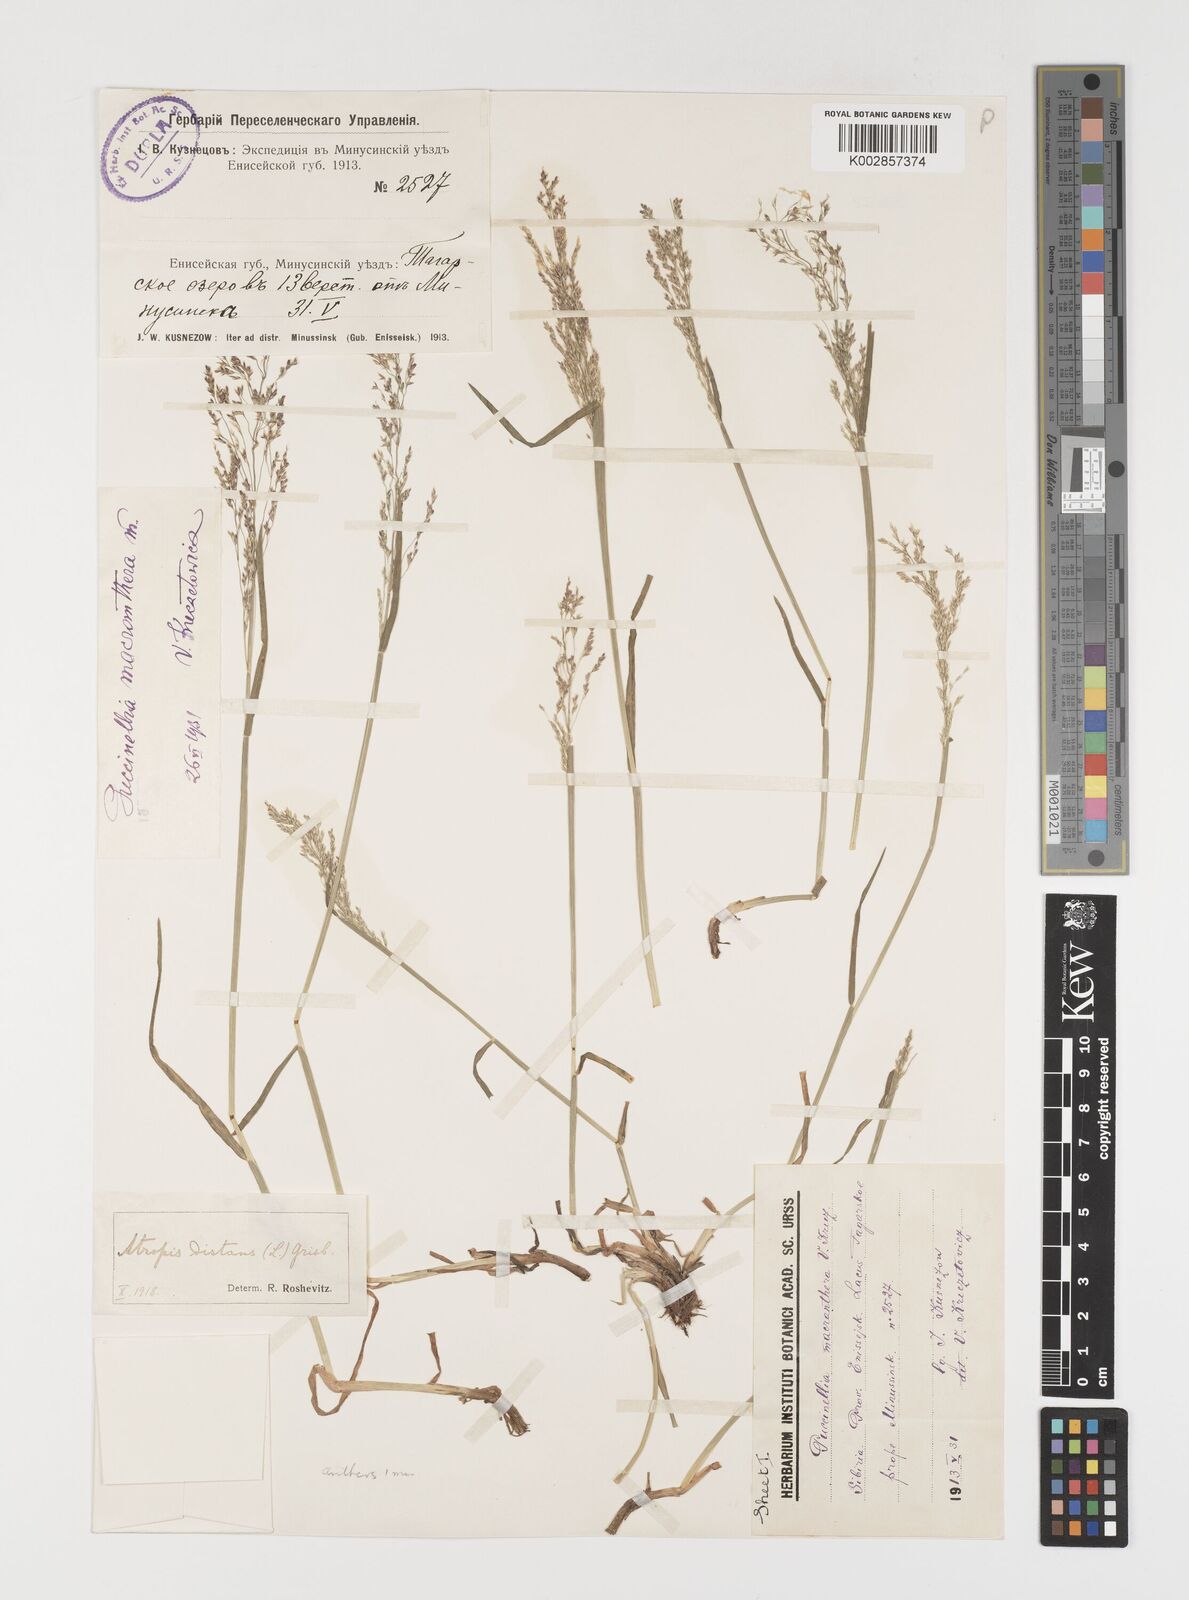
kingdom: Plantae
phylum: Tracheophyta
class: Liliopsida
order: Poales
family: Poaceae
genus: Puccinellia
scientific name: Puccinellia macranthera
